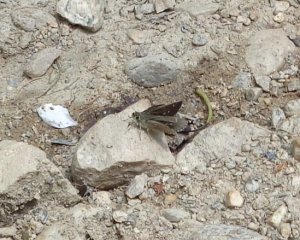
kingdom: Animalia
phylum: Arthropoda
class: Insecta
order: Lepidoptera
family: Hesperiidae
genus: Mastor
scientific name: Mastor hegon
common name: Pepper and Salt Skipper
